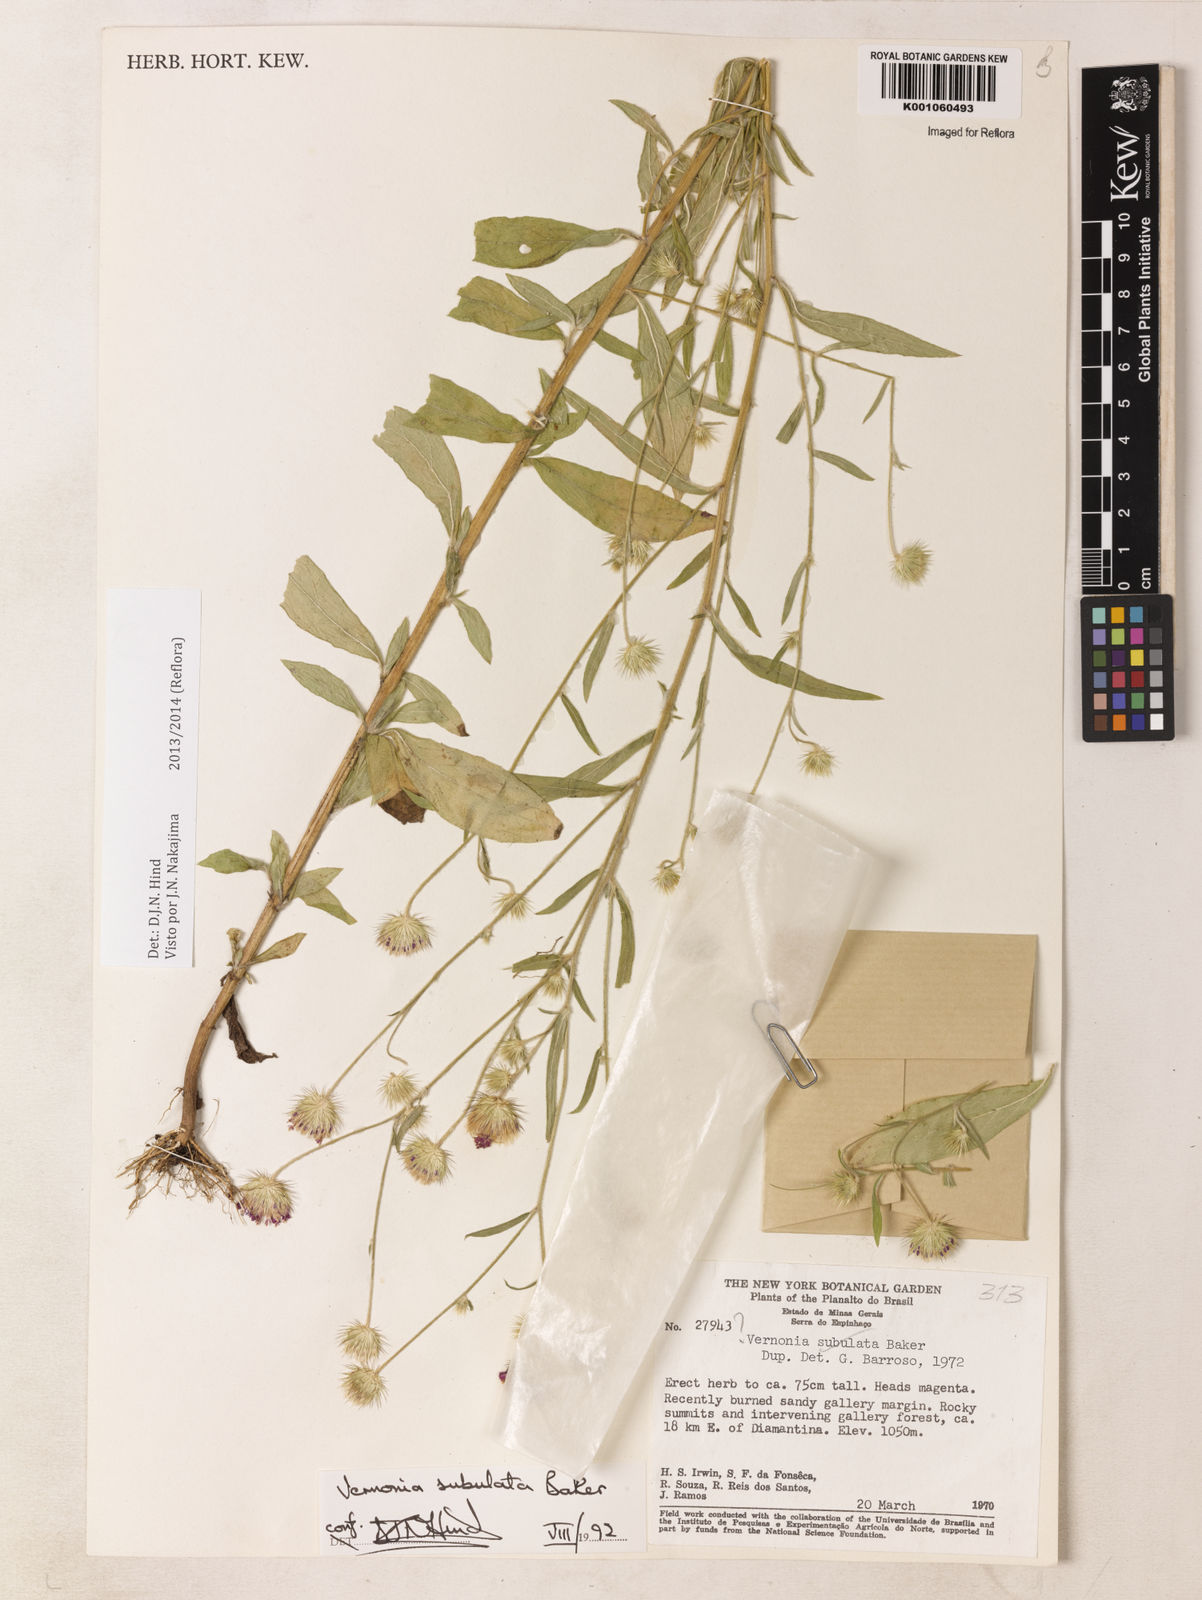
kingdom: Plantae
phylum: Tracheophyta
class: Magnoliopsida
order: Asterales
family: Asteraceae
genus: Echinocoryne
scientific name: Echinocoryne subulata
